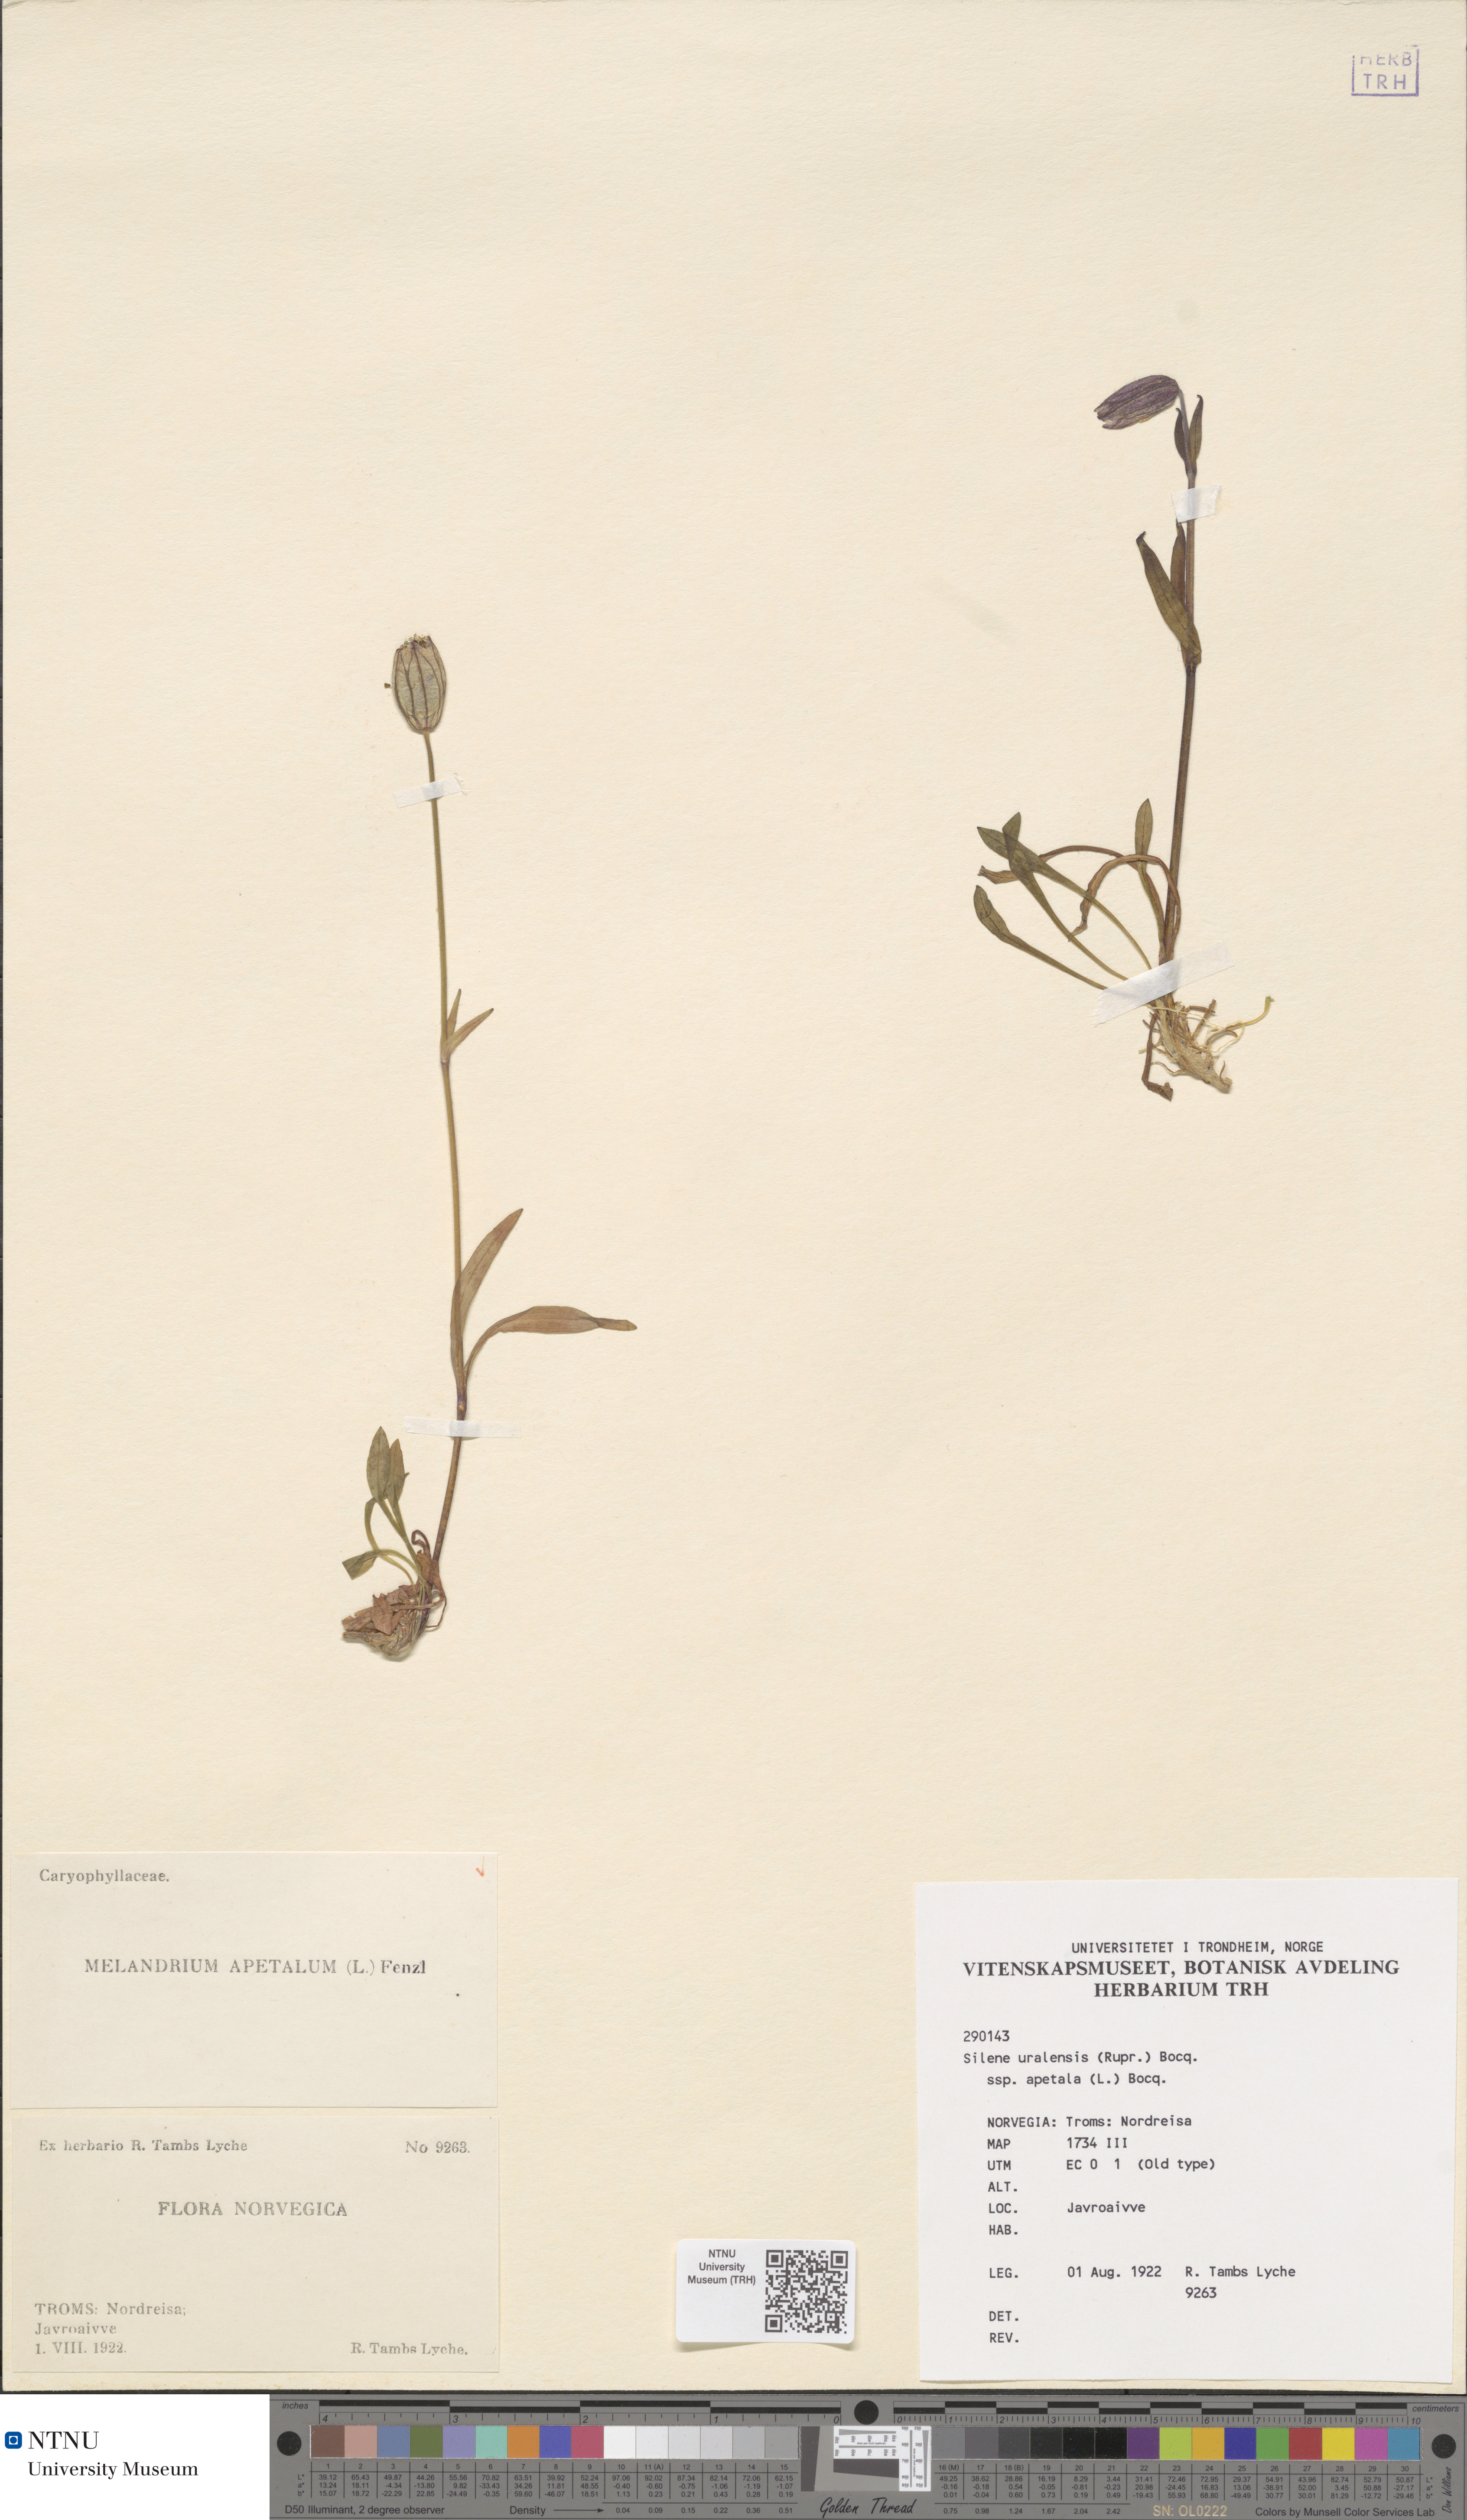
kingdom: Plantae
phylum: Tracheophyta
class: Magnoliopsida
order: Caryophyllales
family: Caryophyllaceae
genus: Silene
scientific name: Silene wahlbergella
